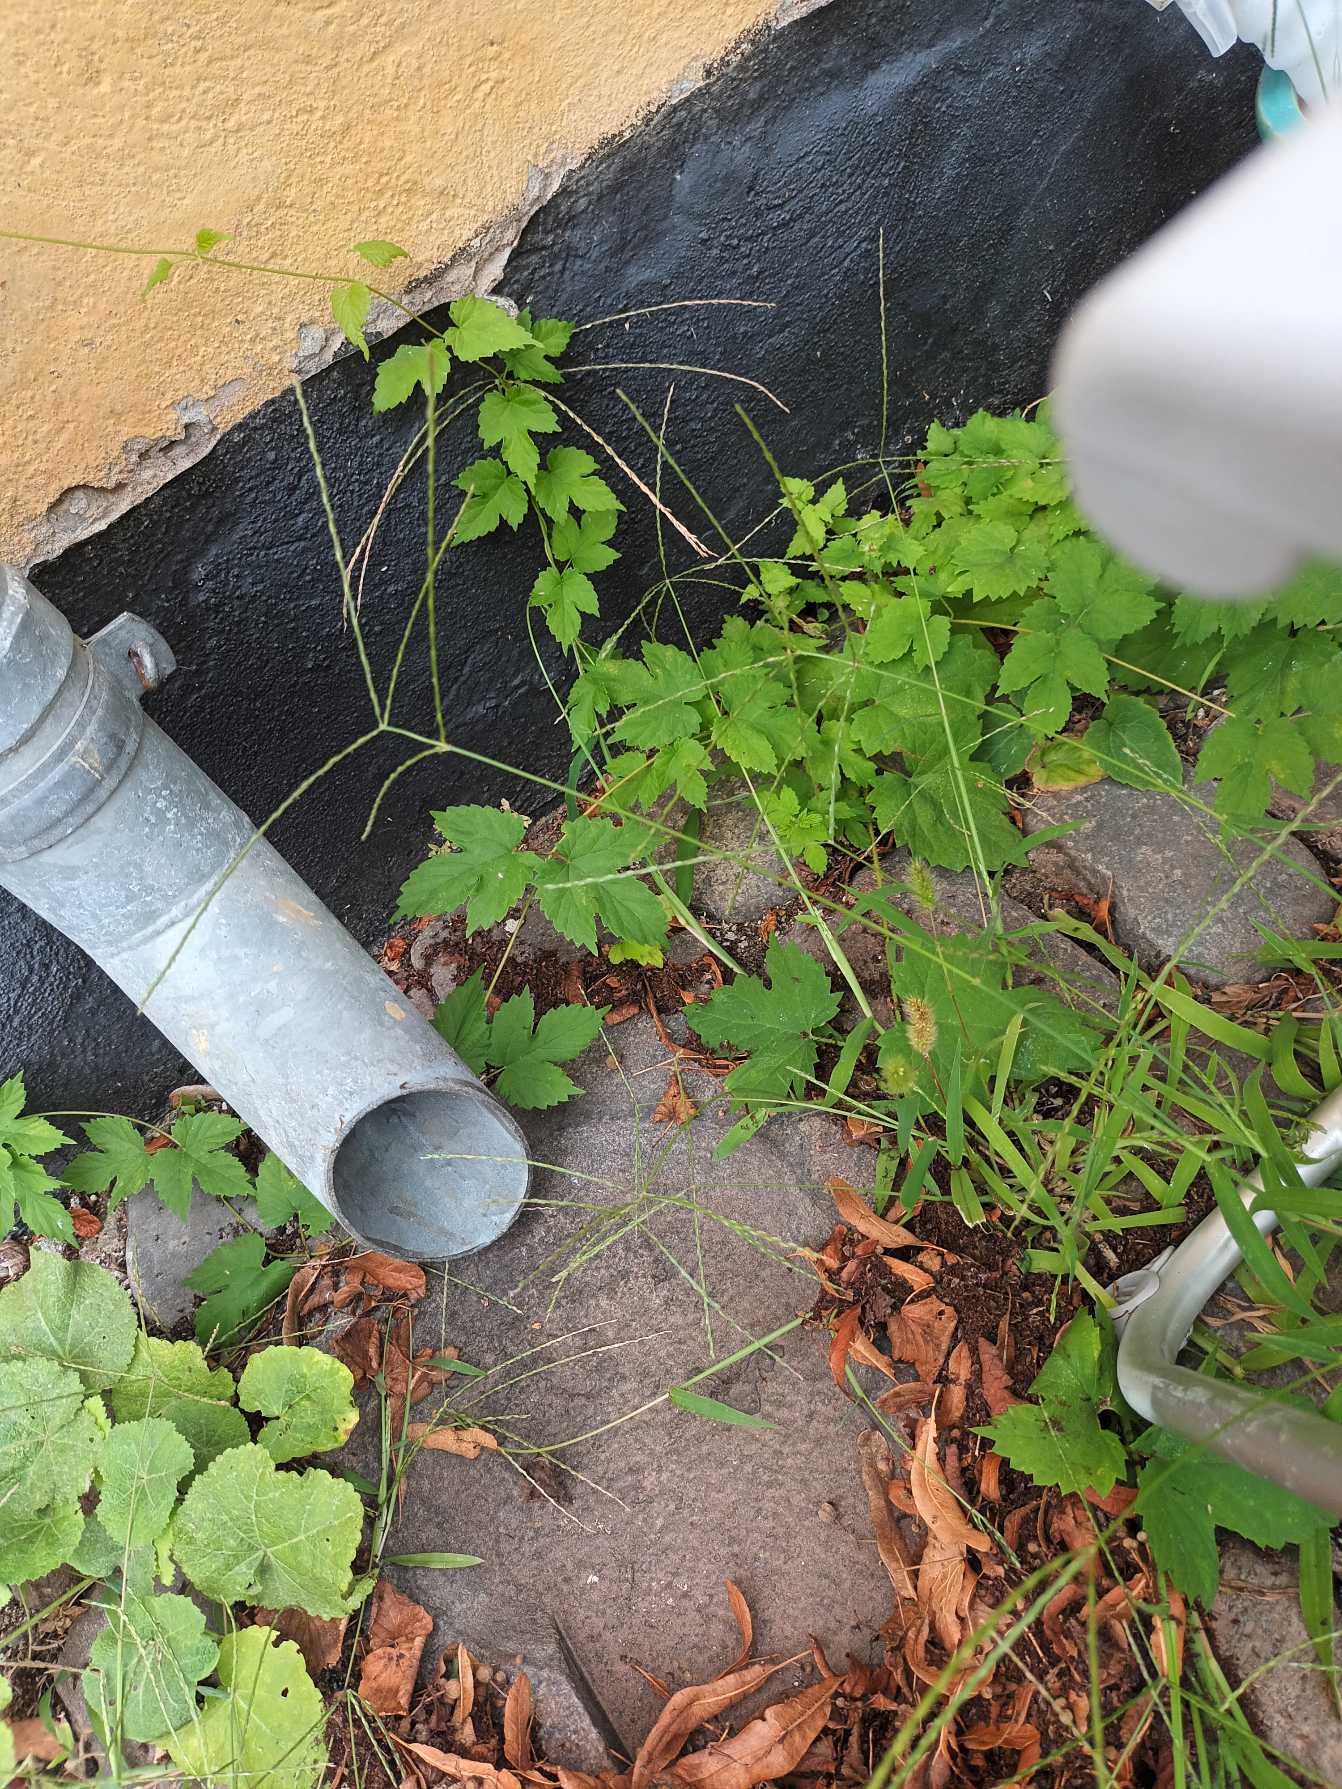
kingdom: Plantae
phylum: Tracheophyta
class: Liliopsida
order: Poales
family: Poaceae
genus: Digitaria
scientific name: Digitaria sanguinalis
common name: Blodhirse
